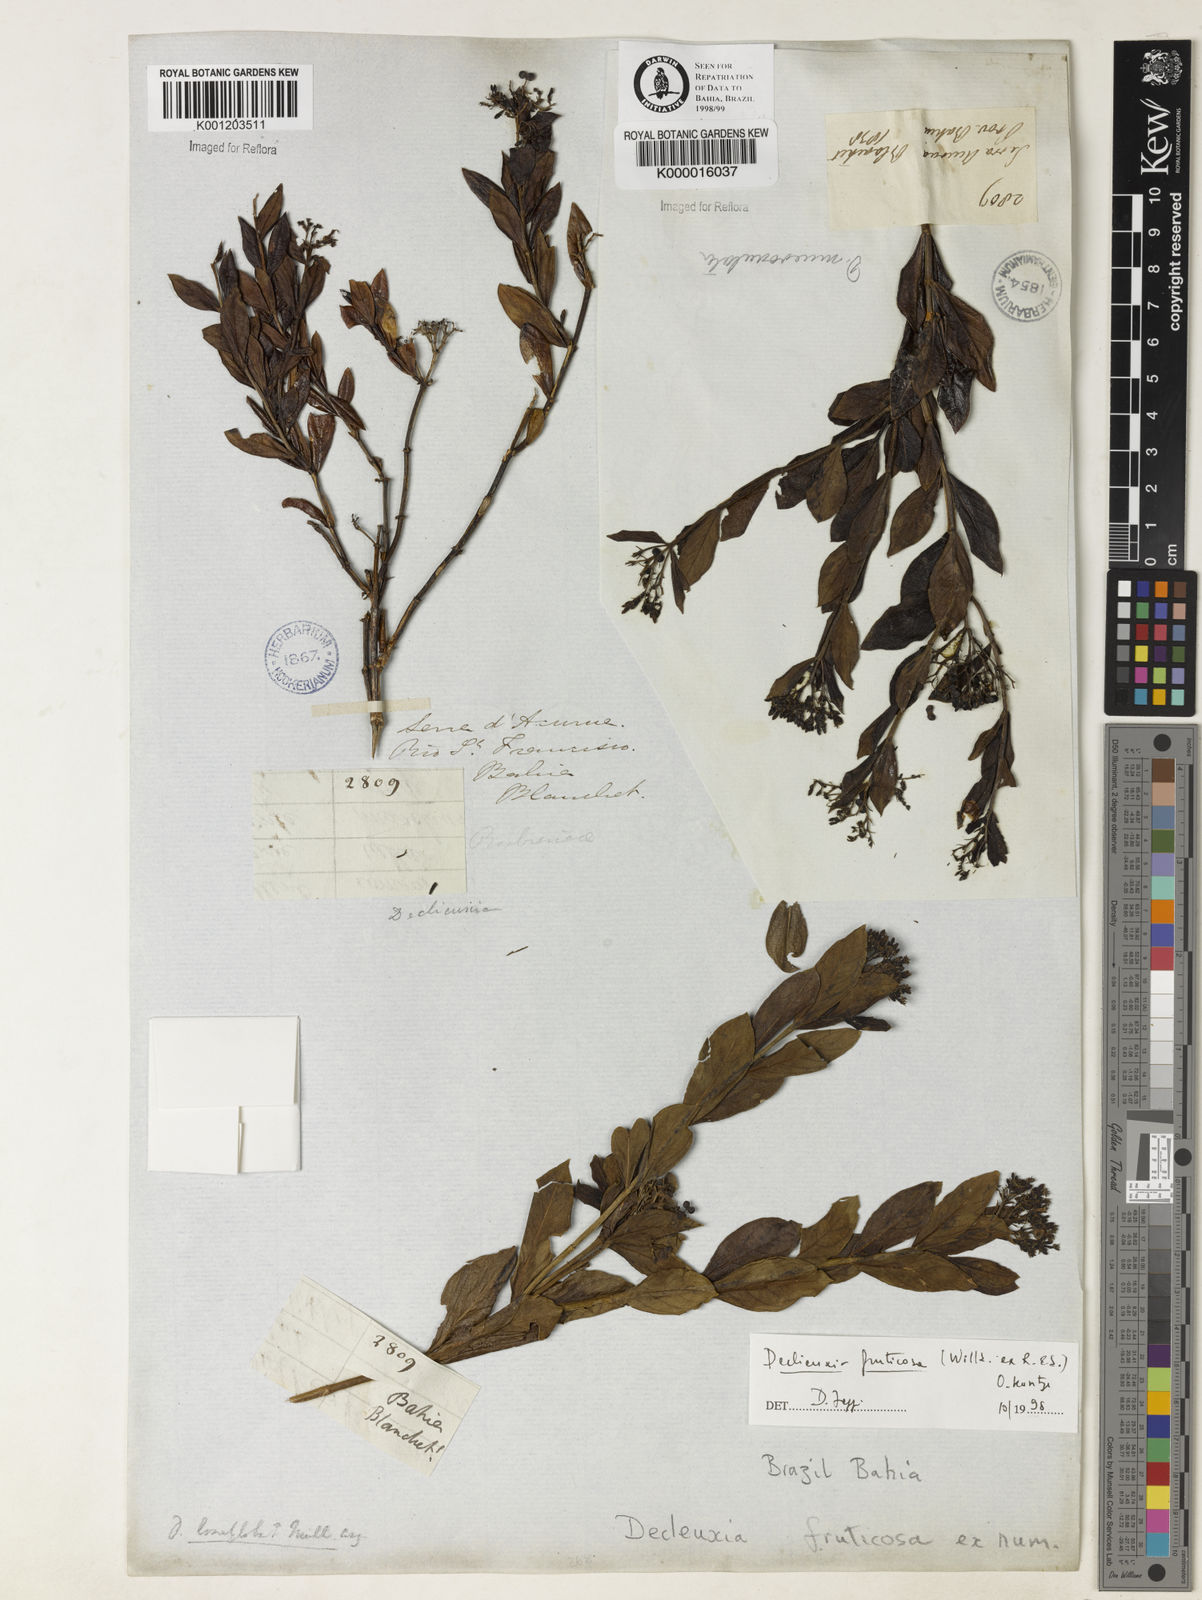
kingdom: Plantae
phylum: Tracheophyta
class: Magnoliopsida
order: Gentianales
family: Rubiaceae
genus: Declieuxia
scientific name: Declieuxia fruticosa
